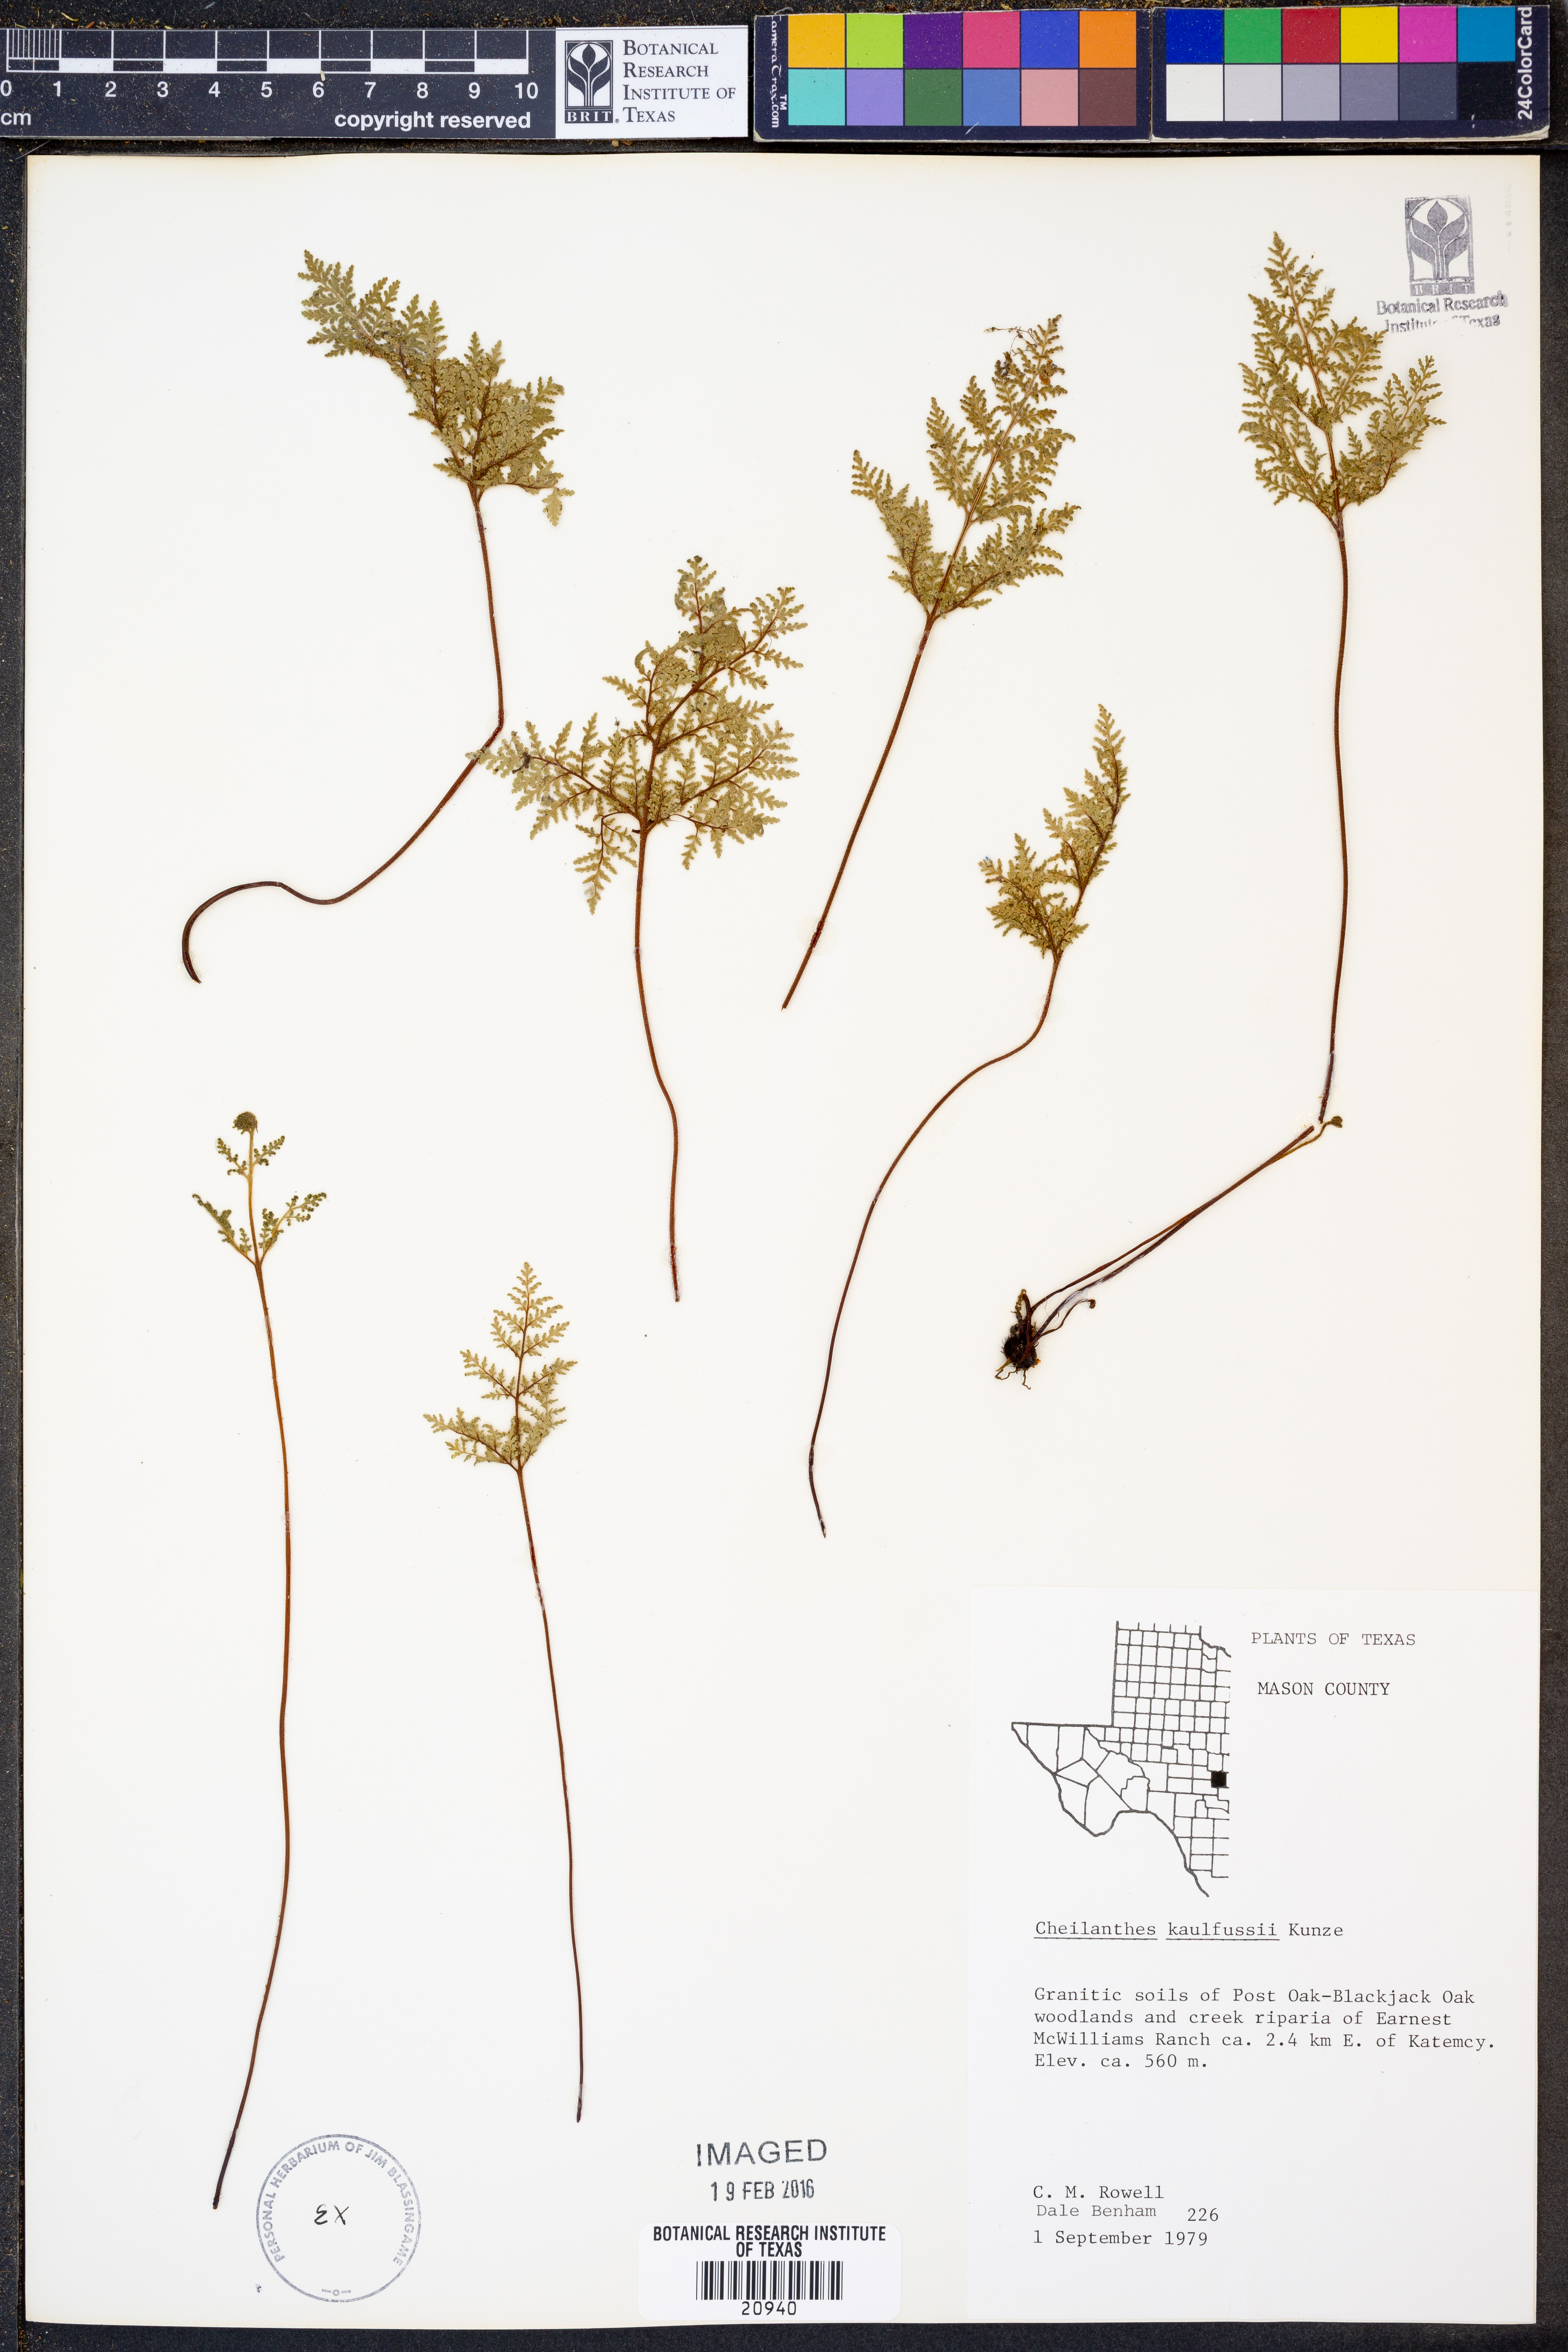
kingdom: Plantae
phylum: Tracheophyta
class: Polypodiopsida
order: Polypodiales
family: Pteridaceae
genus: Gaga
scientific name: Gaga kaulfussii
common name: Glandular lip fern
